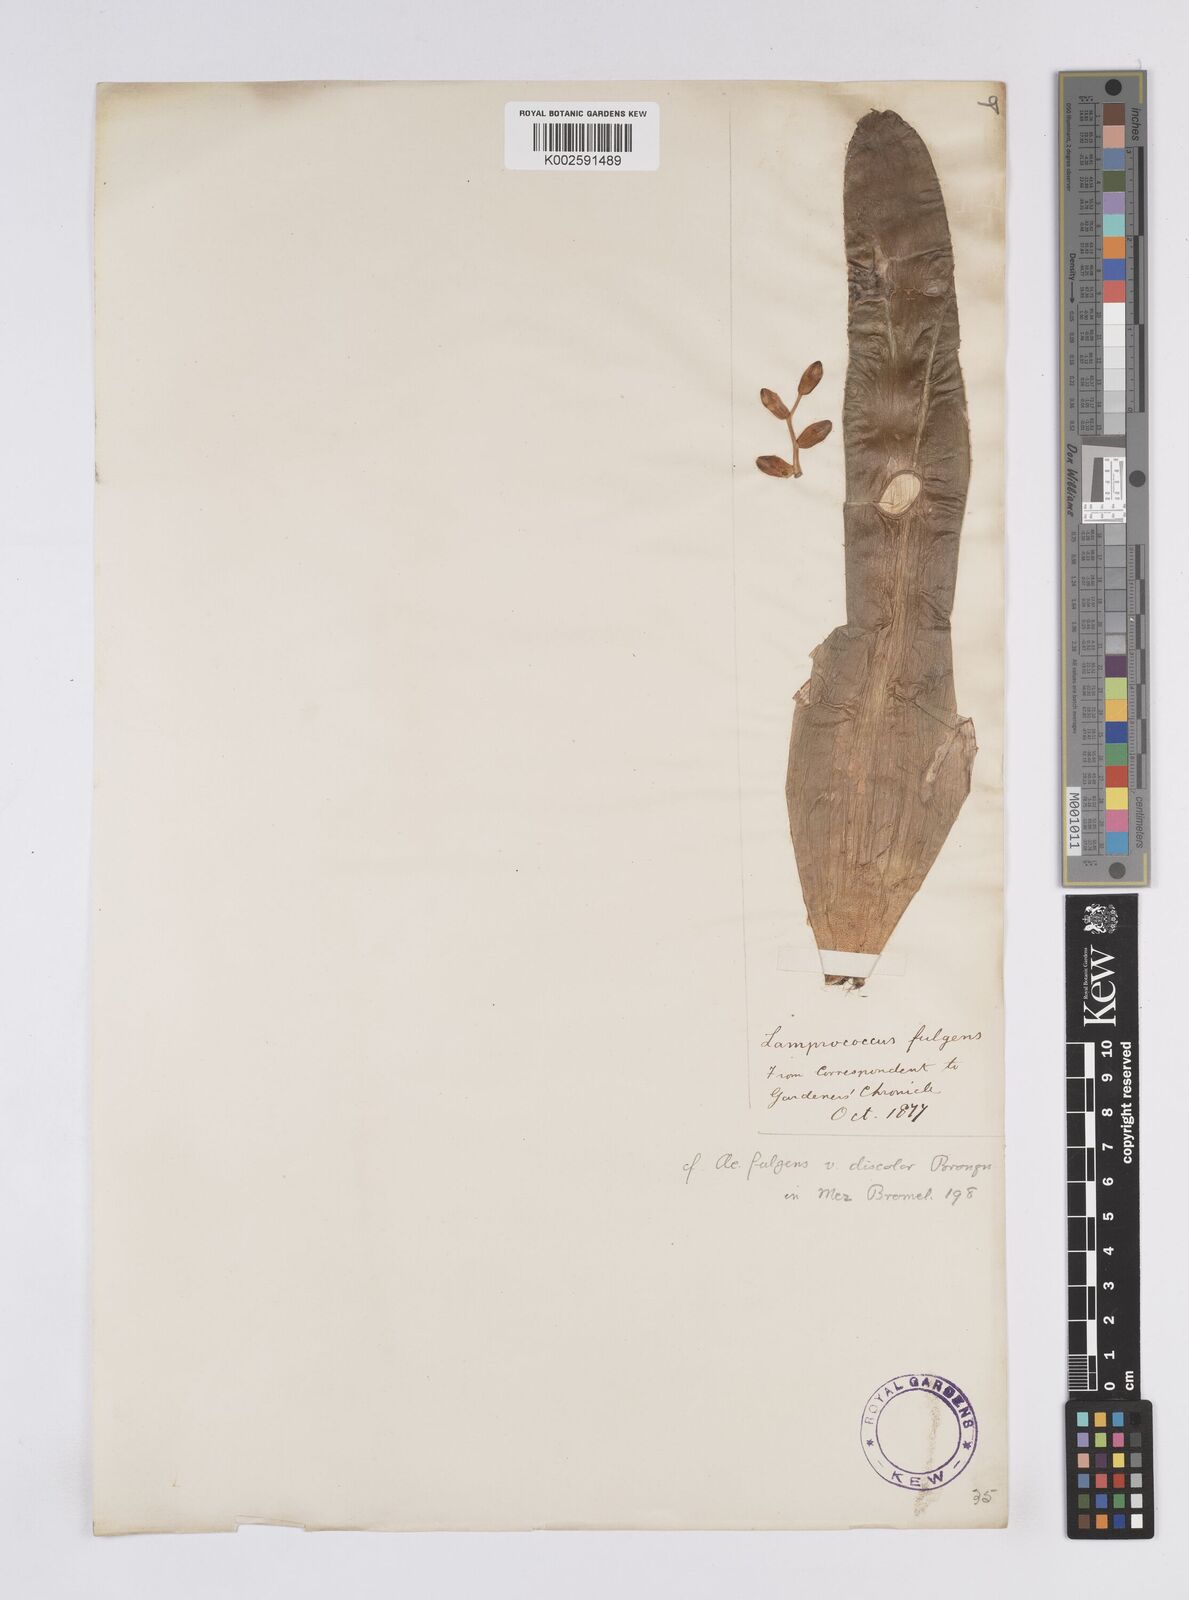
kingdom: Plantae
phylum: Tracheophyta
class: Liliopsida
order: Poales
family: Bromeliaceae
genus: Aechmea
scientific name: Aechmea fulgens
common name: Coralberry
